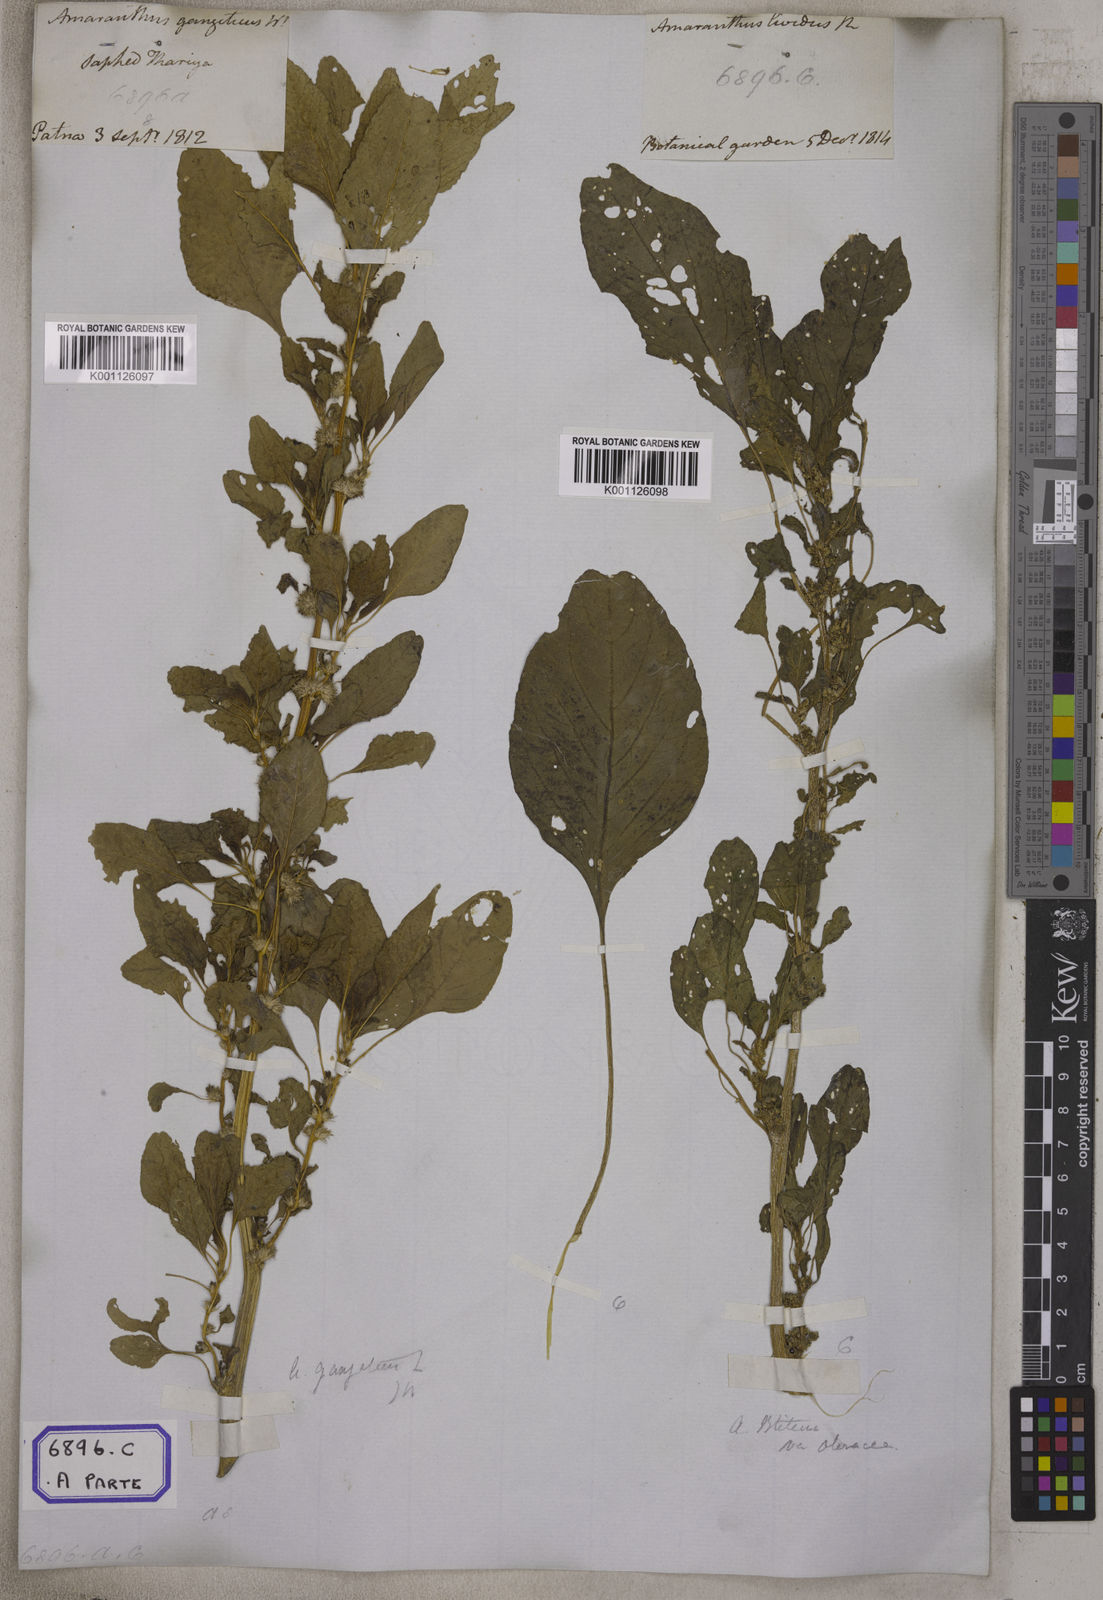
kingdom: Plantae
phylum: Tracheophyta
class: Magnoliopsida
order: Caryophyllales
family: Amaranthaceae
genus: Amaranthus
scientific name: Amaranthus blitum
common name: Purple amaranth
